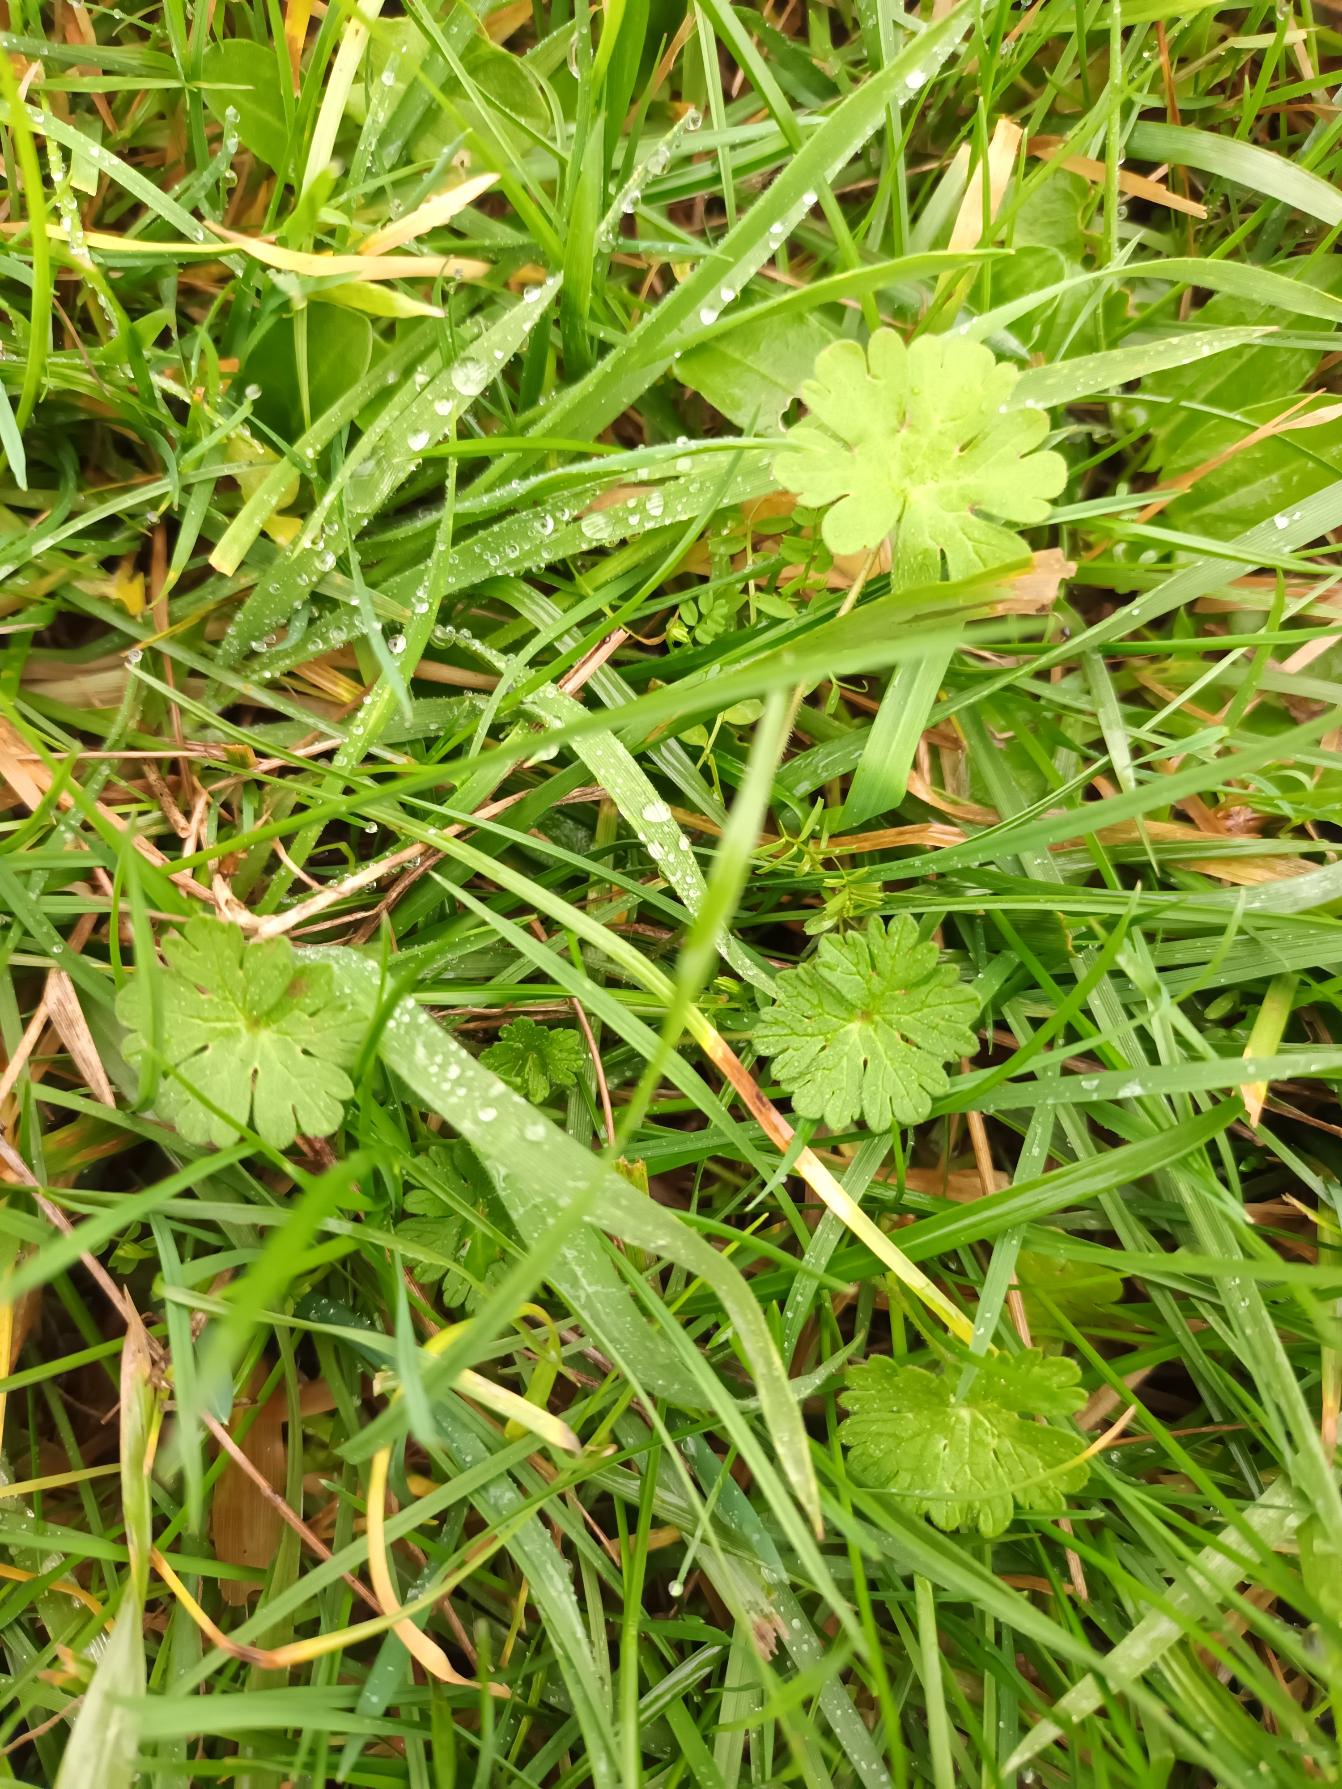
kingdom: Plantae
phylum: Tracheophyta
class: Magnoliopsida
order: Geraniales
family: Geraniaceae
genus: Geranium
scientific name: Geranium pusillum
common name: Liden storkenæb
